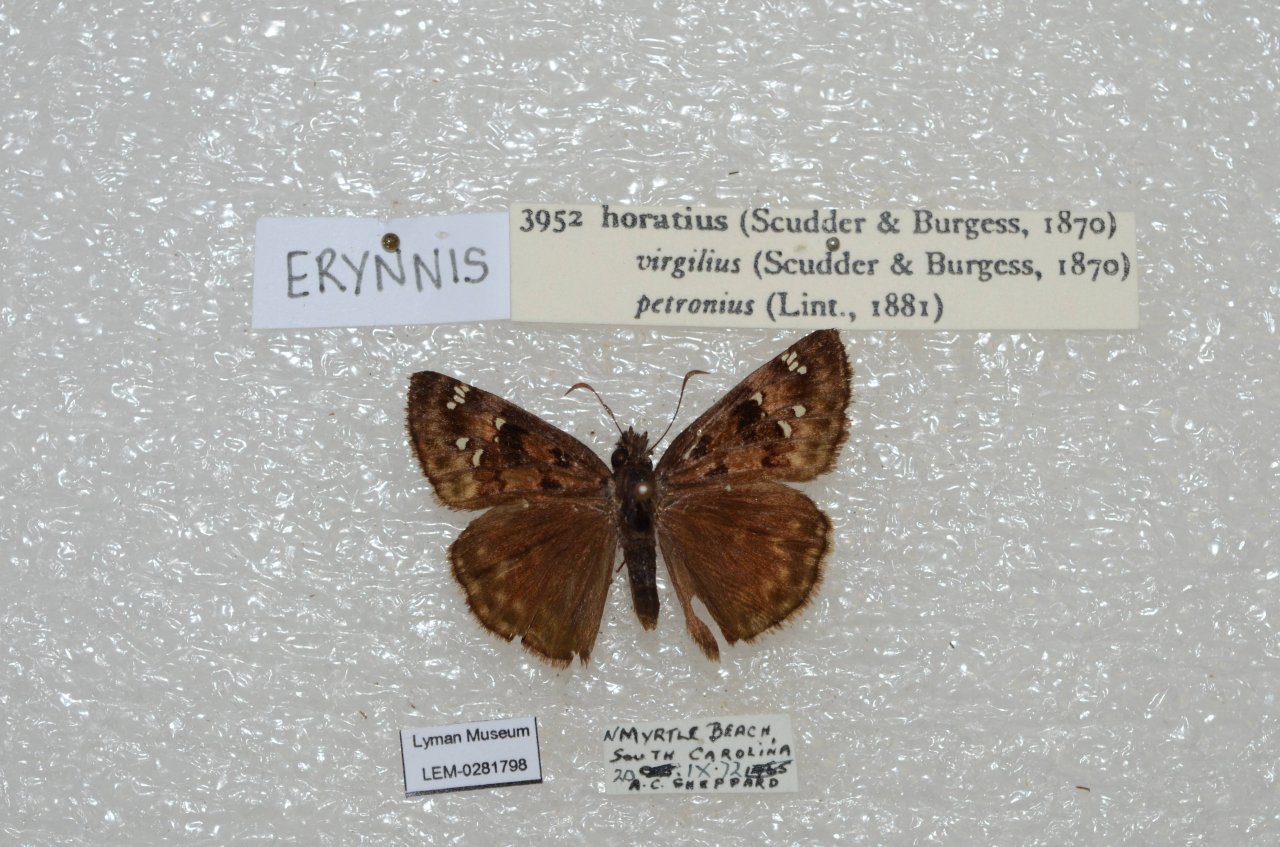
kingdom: Animalia
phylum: Arthropoda
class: Insecta
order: Lepidoptera
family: Hesperiidae
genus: Gesta
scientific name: Gesta
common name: Horace's Duskywing
